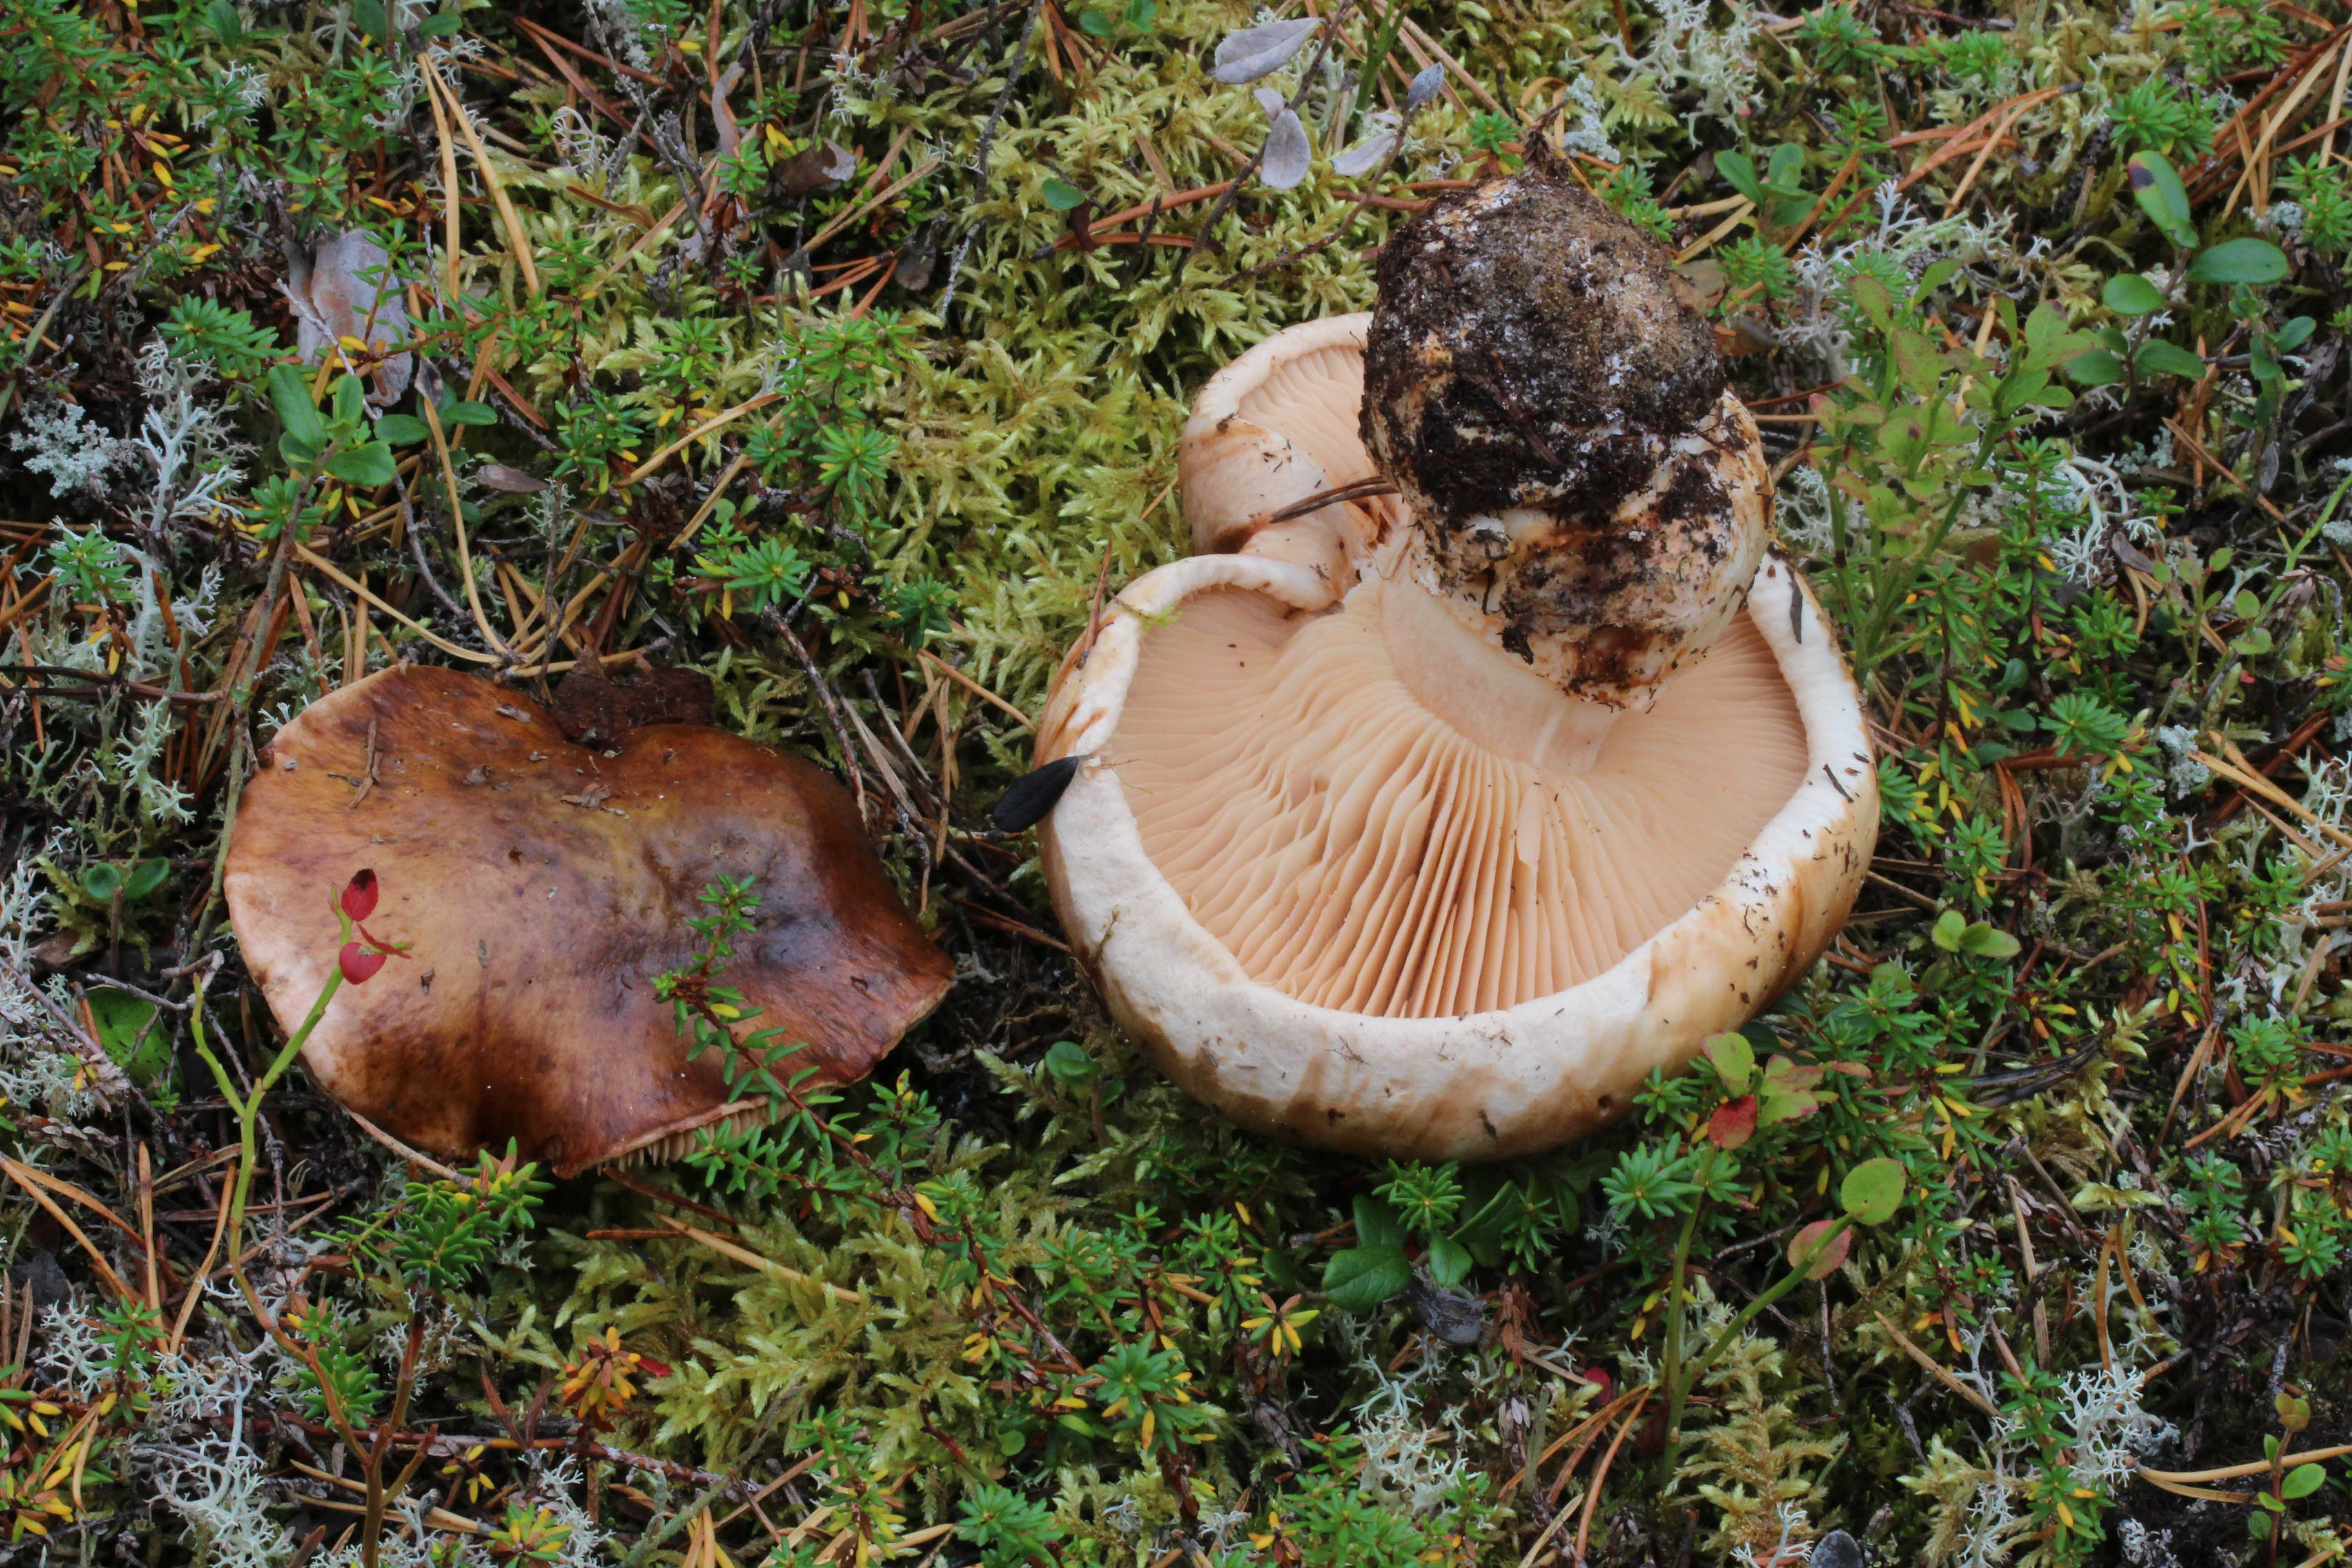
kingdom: Fungi
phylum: Basidiomycota
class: Agaricomycetes
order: Agaricales
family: Tricholomataceae
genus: Tricholoma
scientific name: Tricholoma colossus
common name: Giant knight
